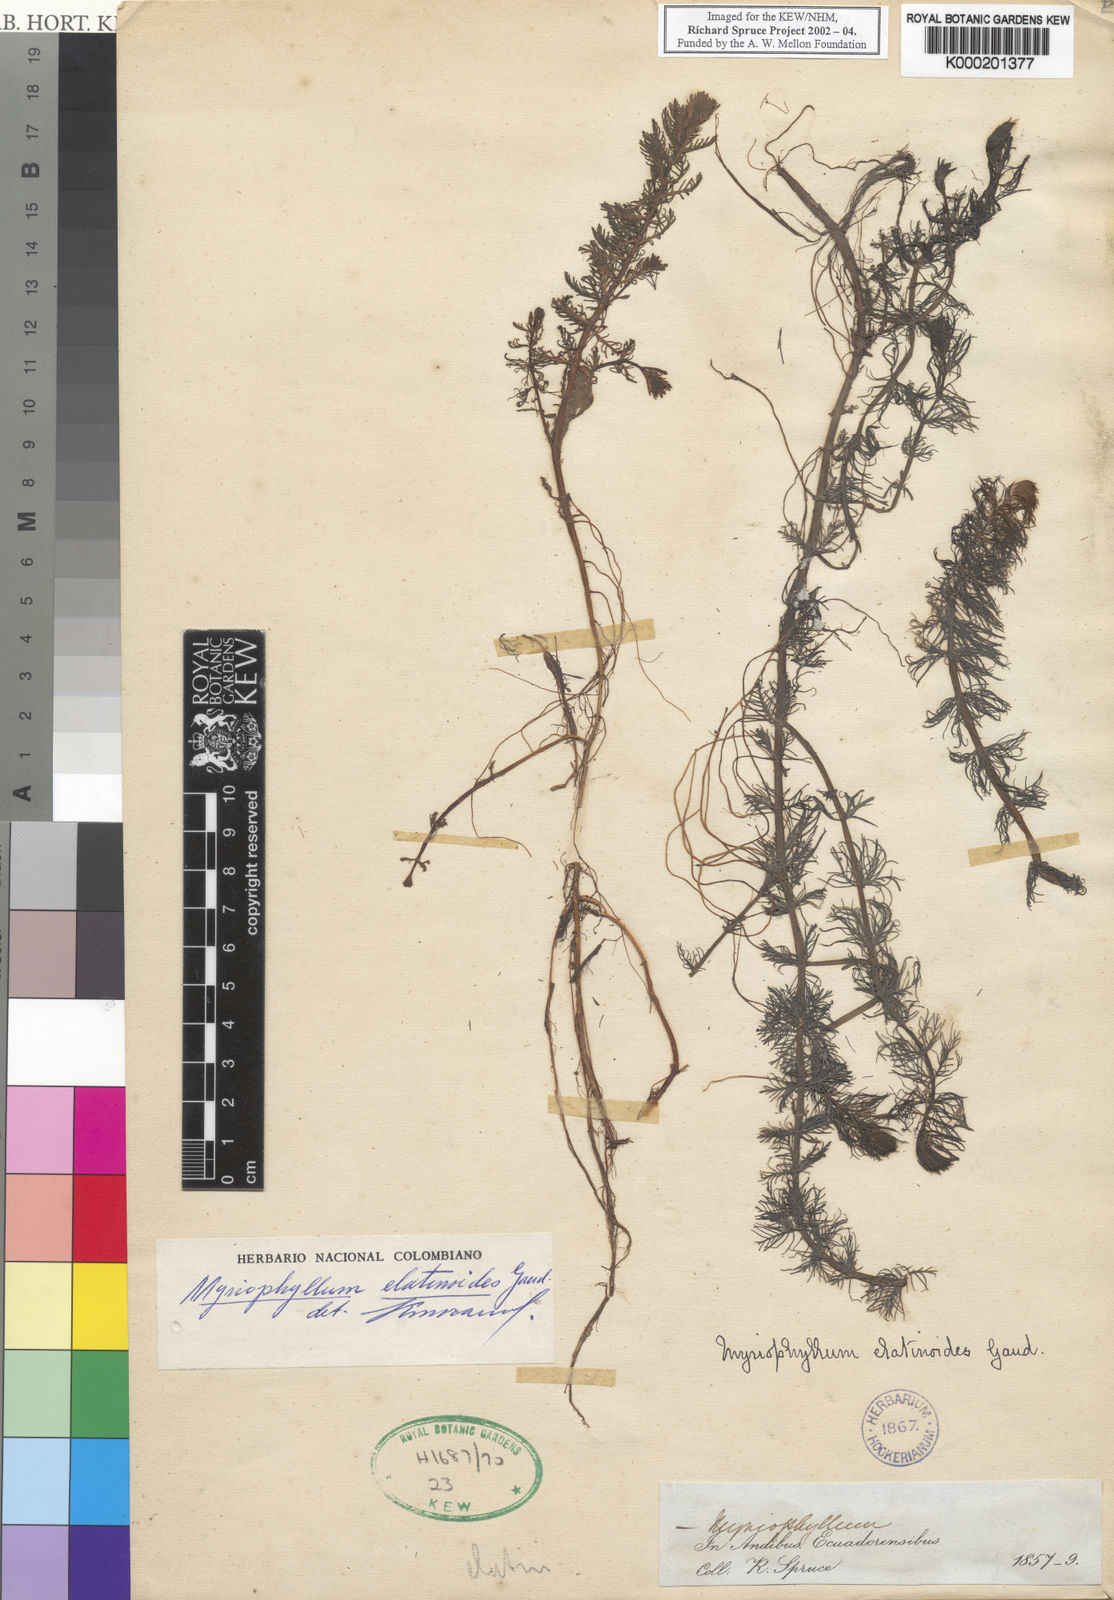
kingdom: Plantae
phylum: Tracheophyta
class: Magnoliopsida
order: Saxifragales
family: Haloragaceae
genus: Myriophyllum
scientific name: Myriophyllum quitense
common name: Andean water milfoil
